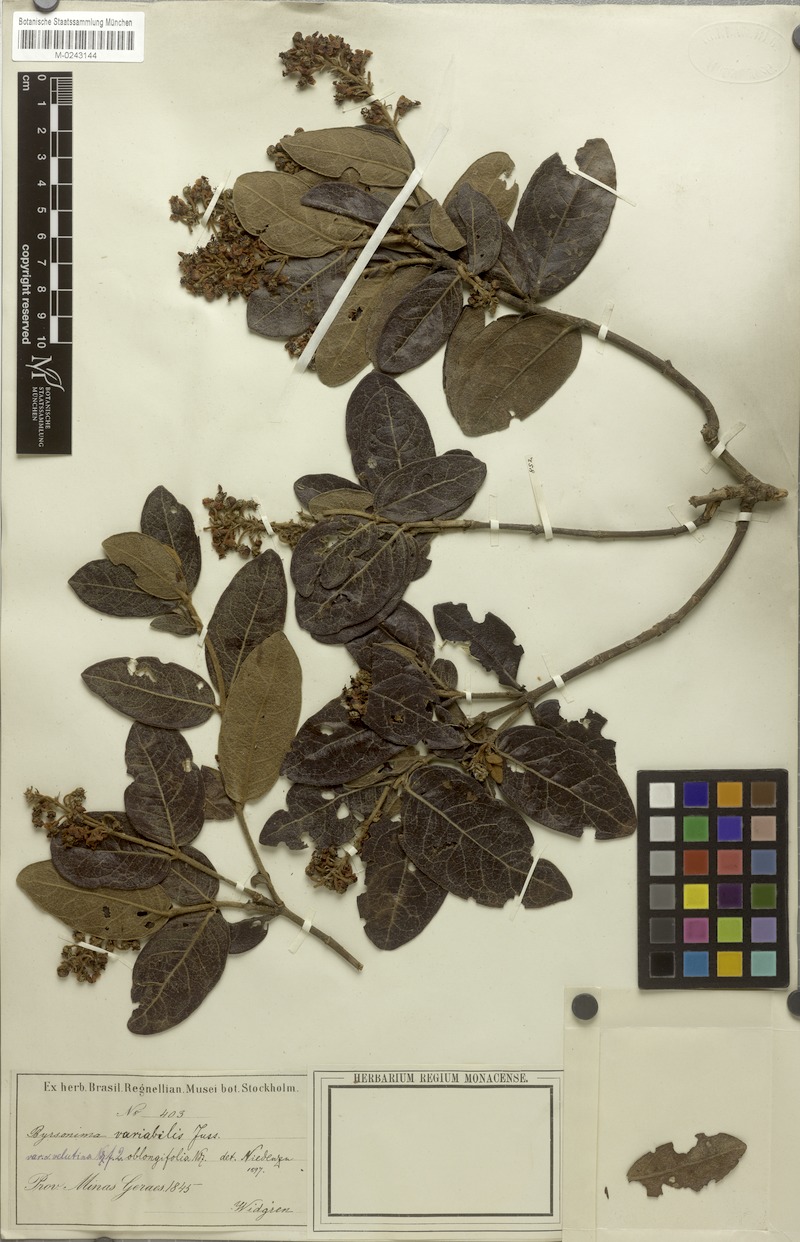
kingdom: Plantae
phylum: Tracheophyta
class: Magnoliopsida
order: Malpighiales
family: Malpighiaceae
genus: Byrsonima
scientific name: Byrsonima variabilis
